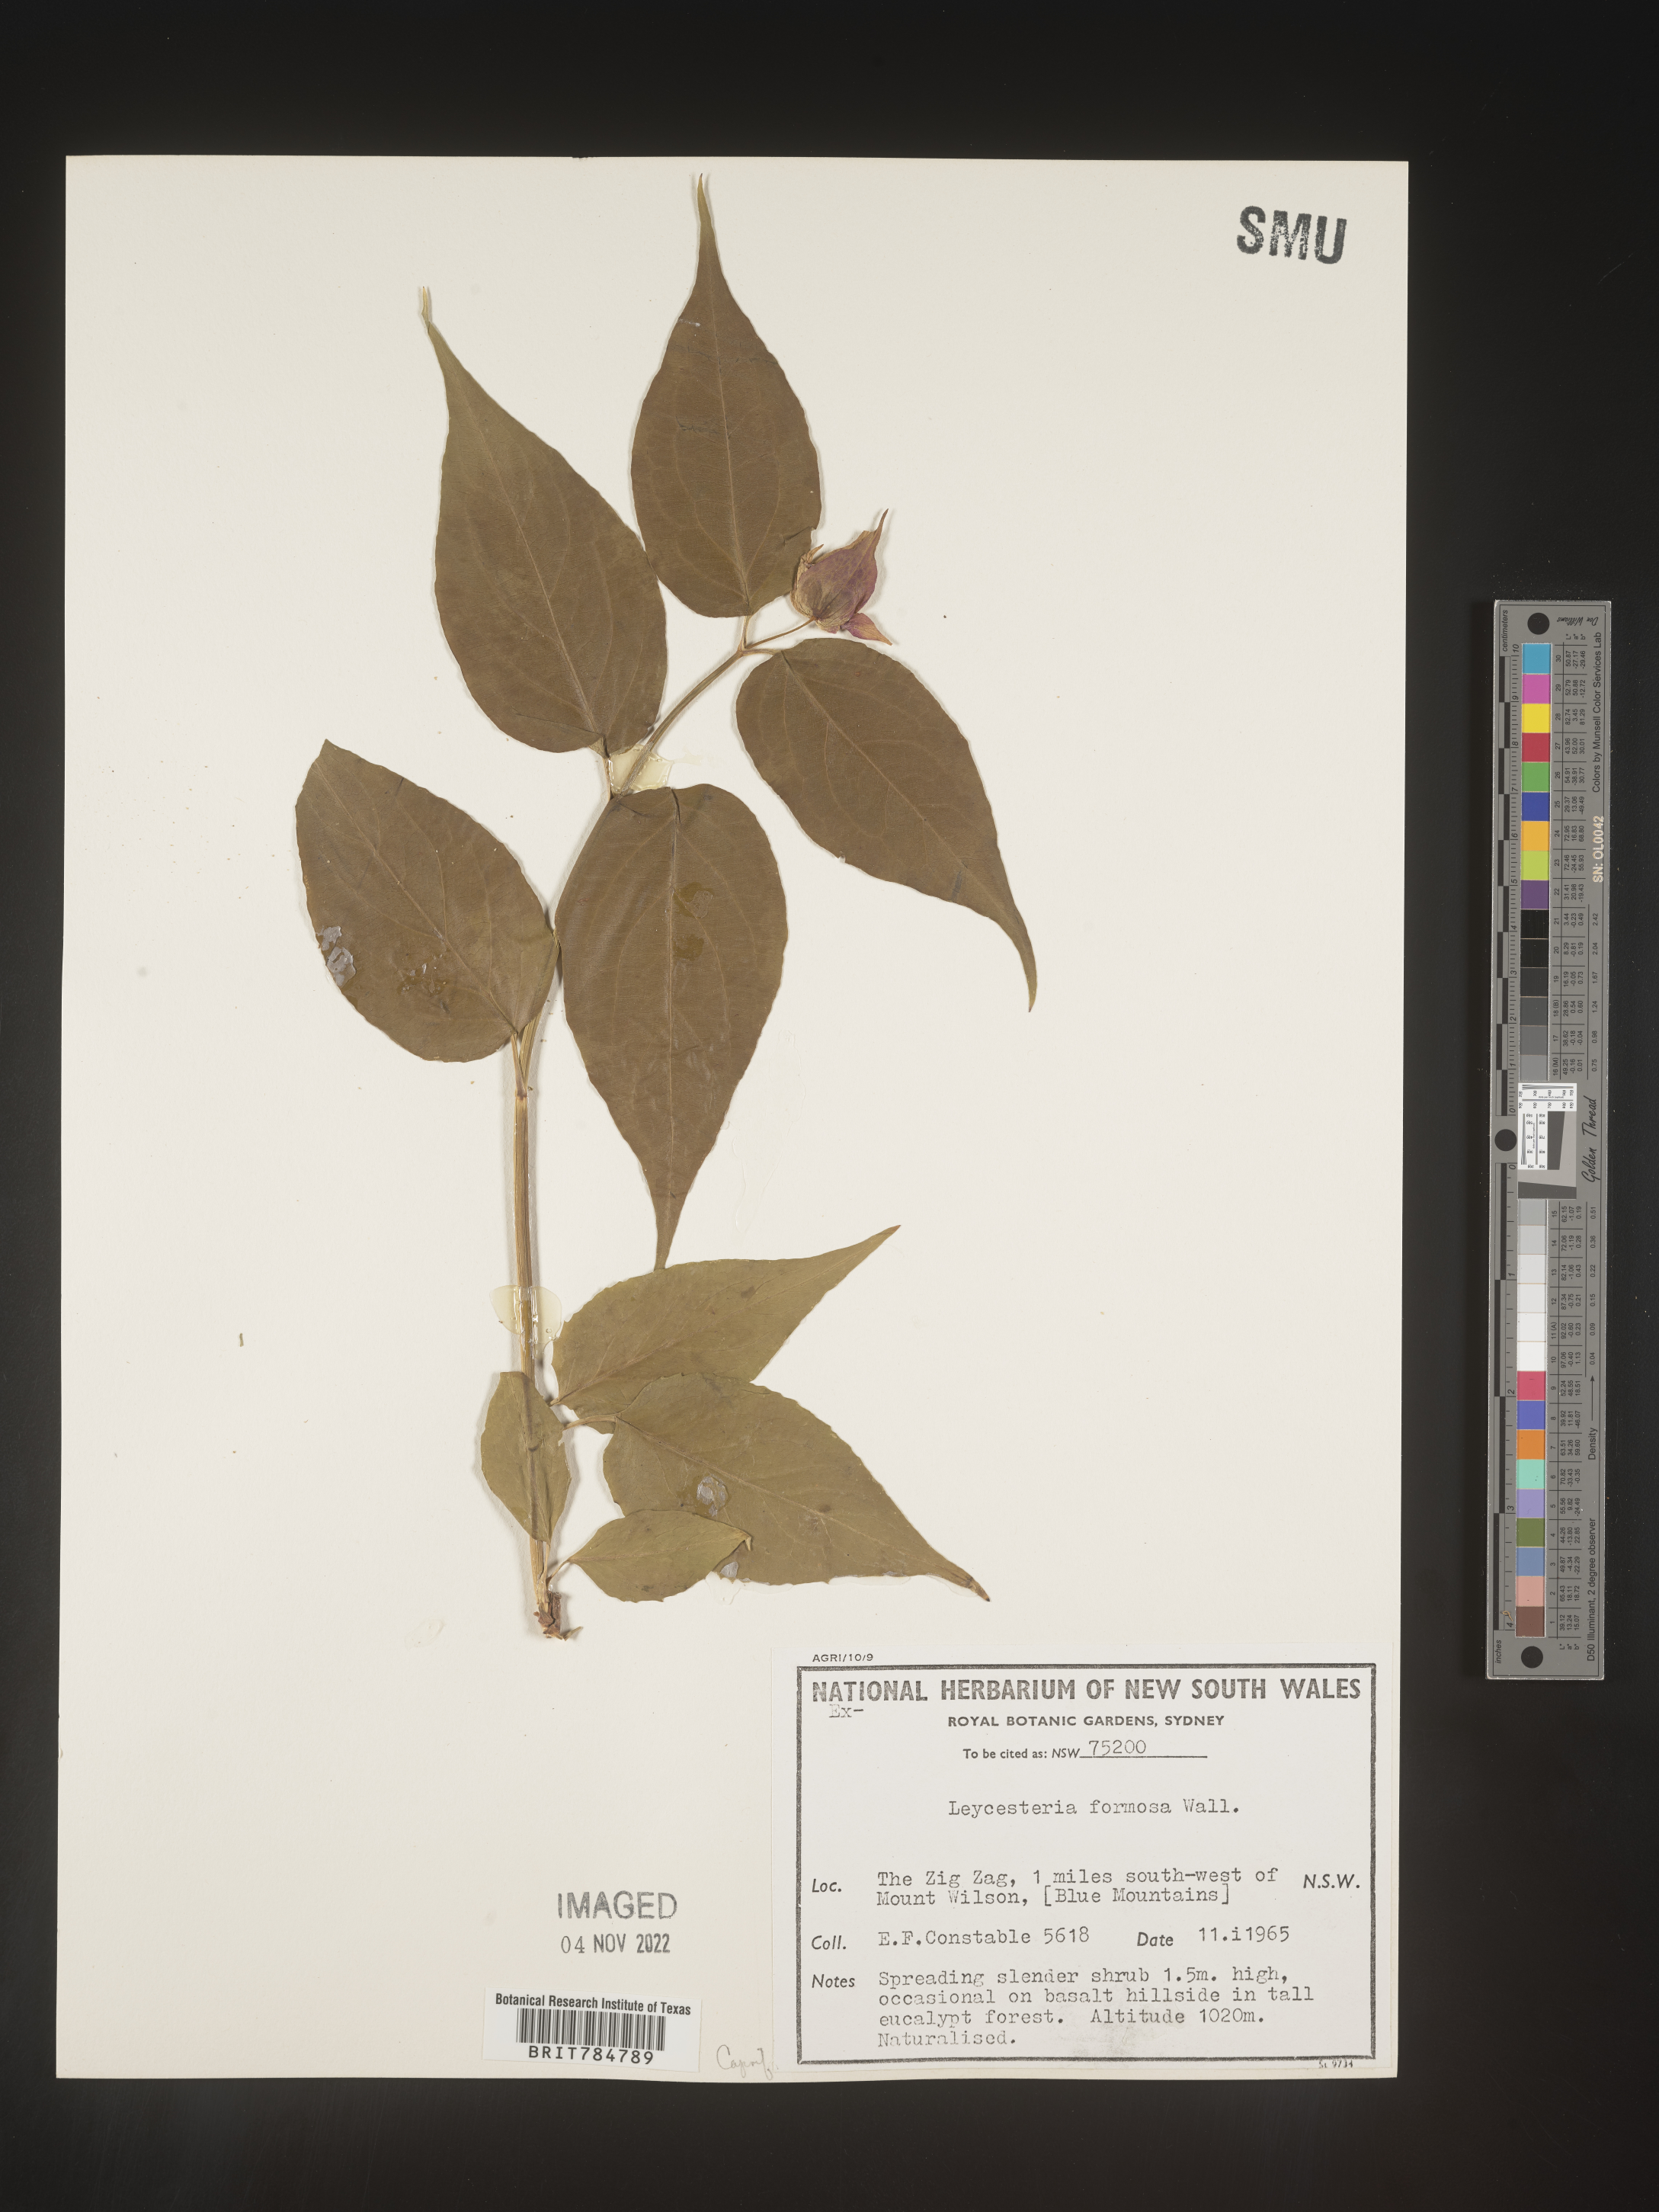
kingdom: Plantae
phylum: Tracheophyta
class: Magnoliopsida
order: Dipsacales
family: Caprifoliaceae
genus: Leycesteria
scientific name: Leycesteria
